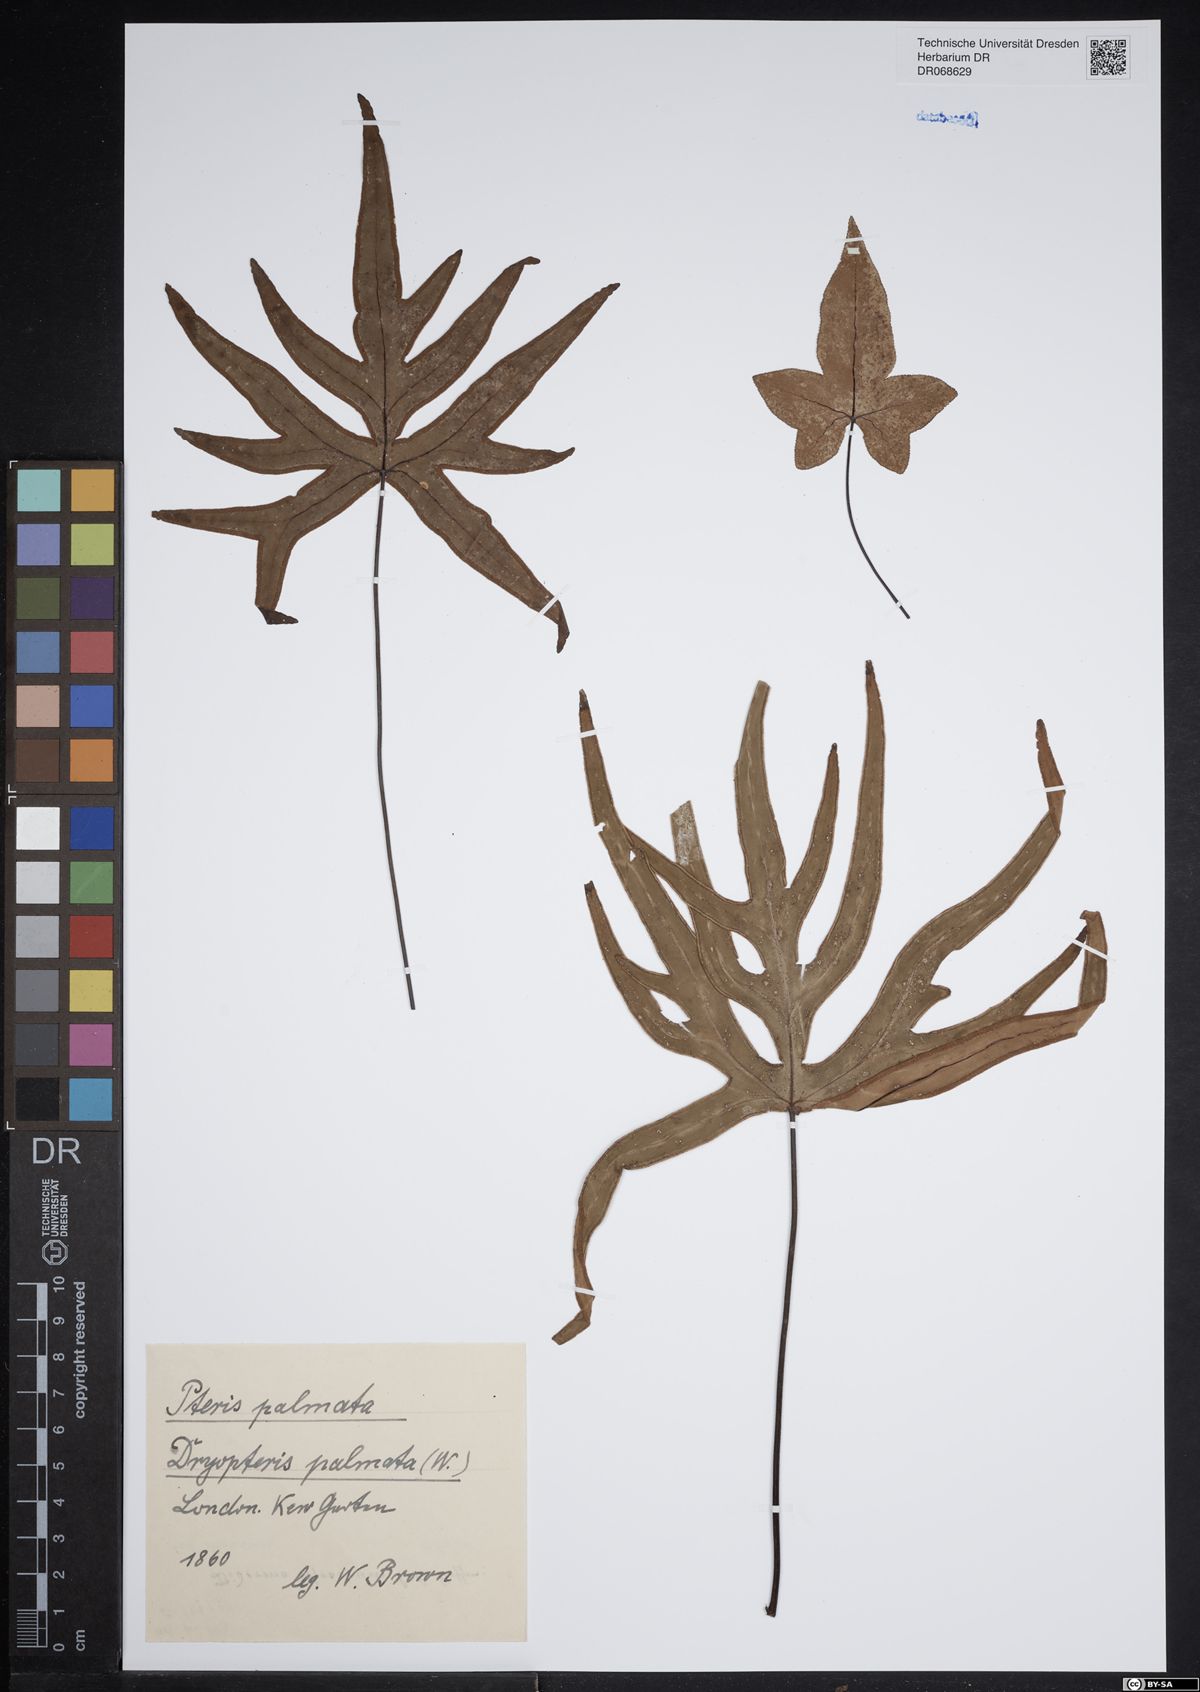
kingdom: Plantae
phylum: Tracheophyta
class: Polypodiopsida
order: Polypodiales
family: Pteridaceae
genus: Doryopteris
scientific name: Doryopteris palmata
